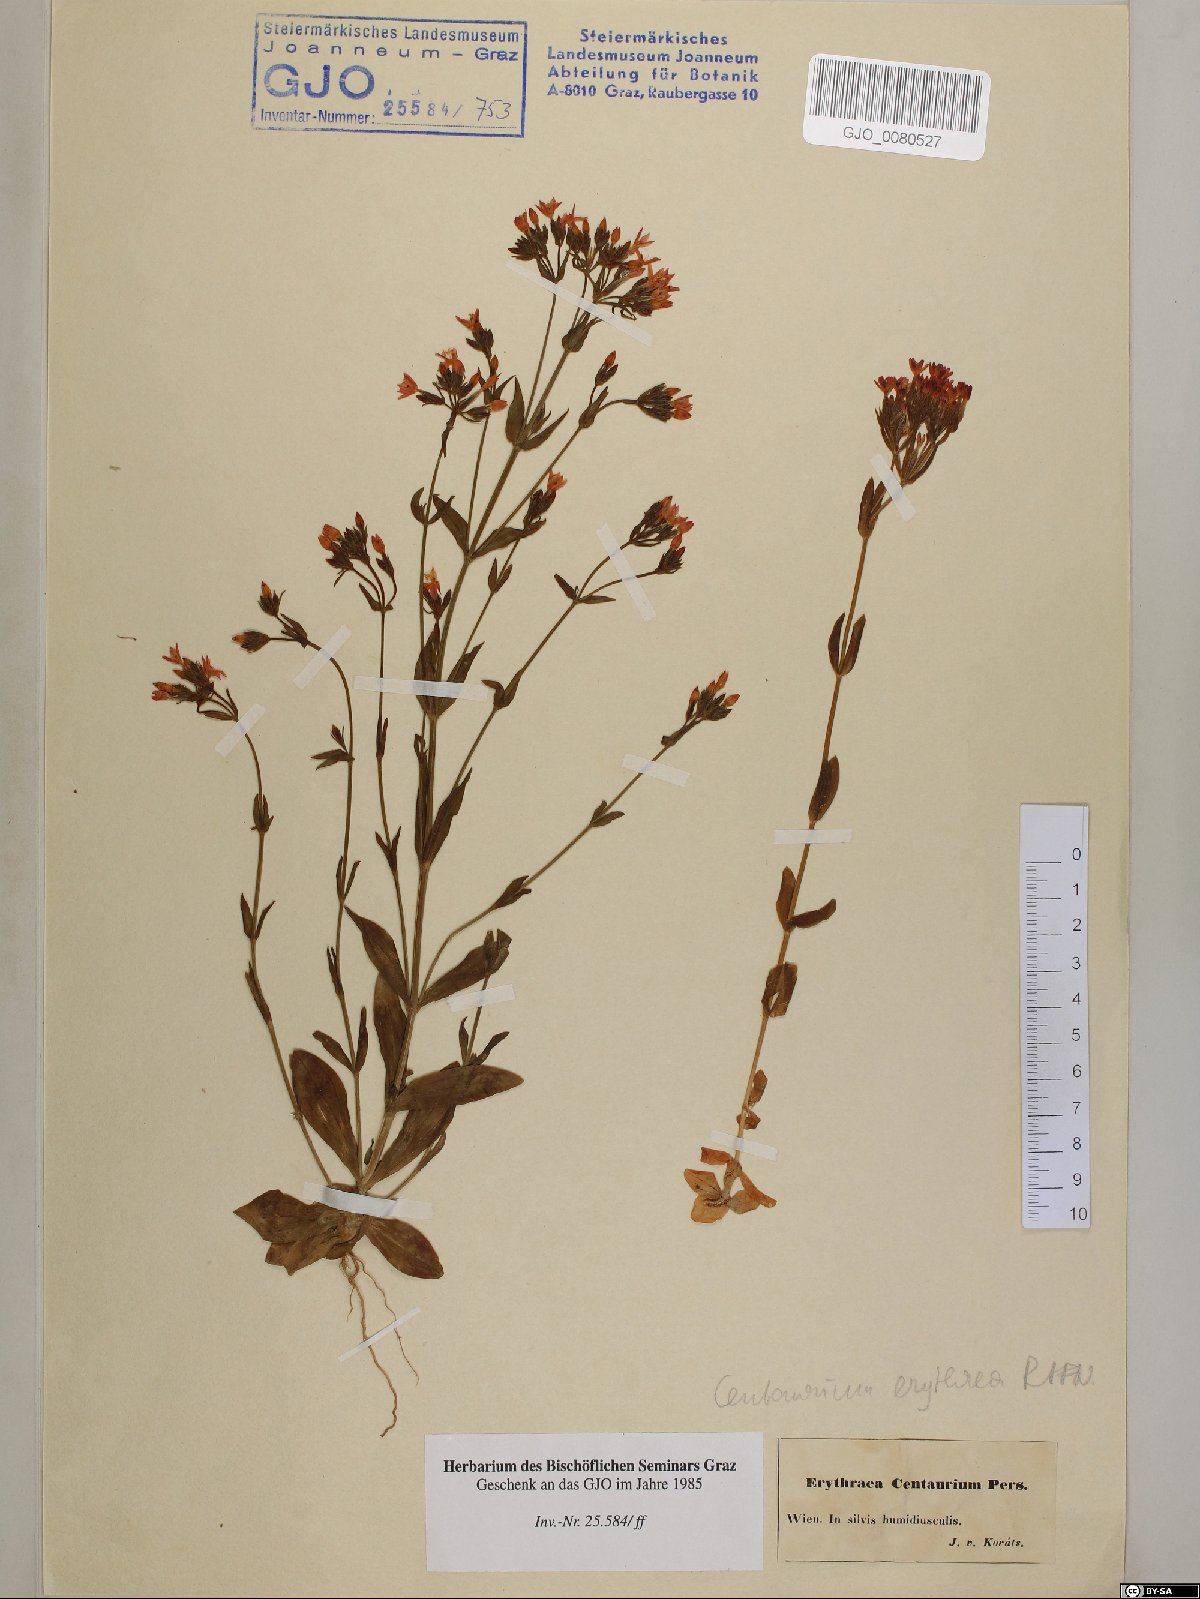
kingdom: Plantae
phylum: Tracheophyta
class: Magnoliopsida
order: Gentianales
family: Gentianaceae
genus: Centaurium
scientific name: Centaurium erythraea
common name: Common centaury
